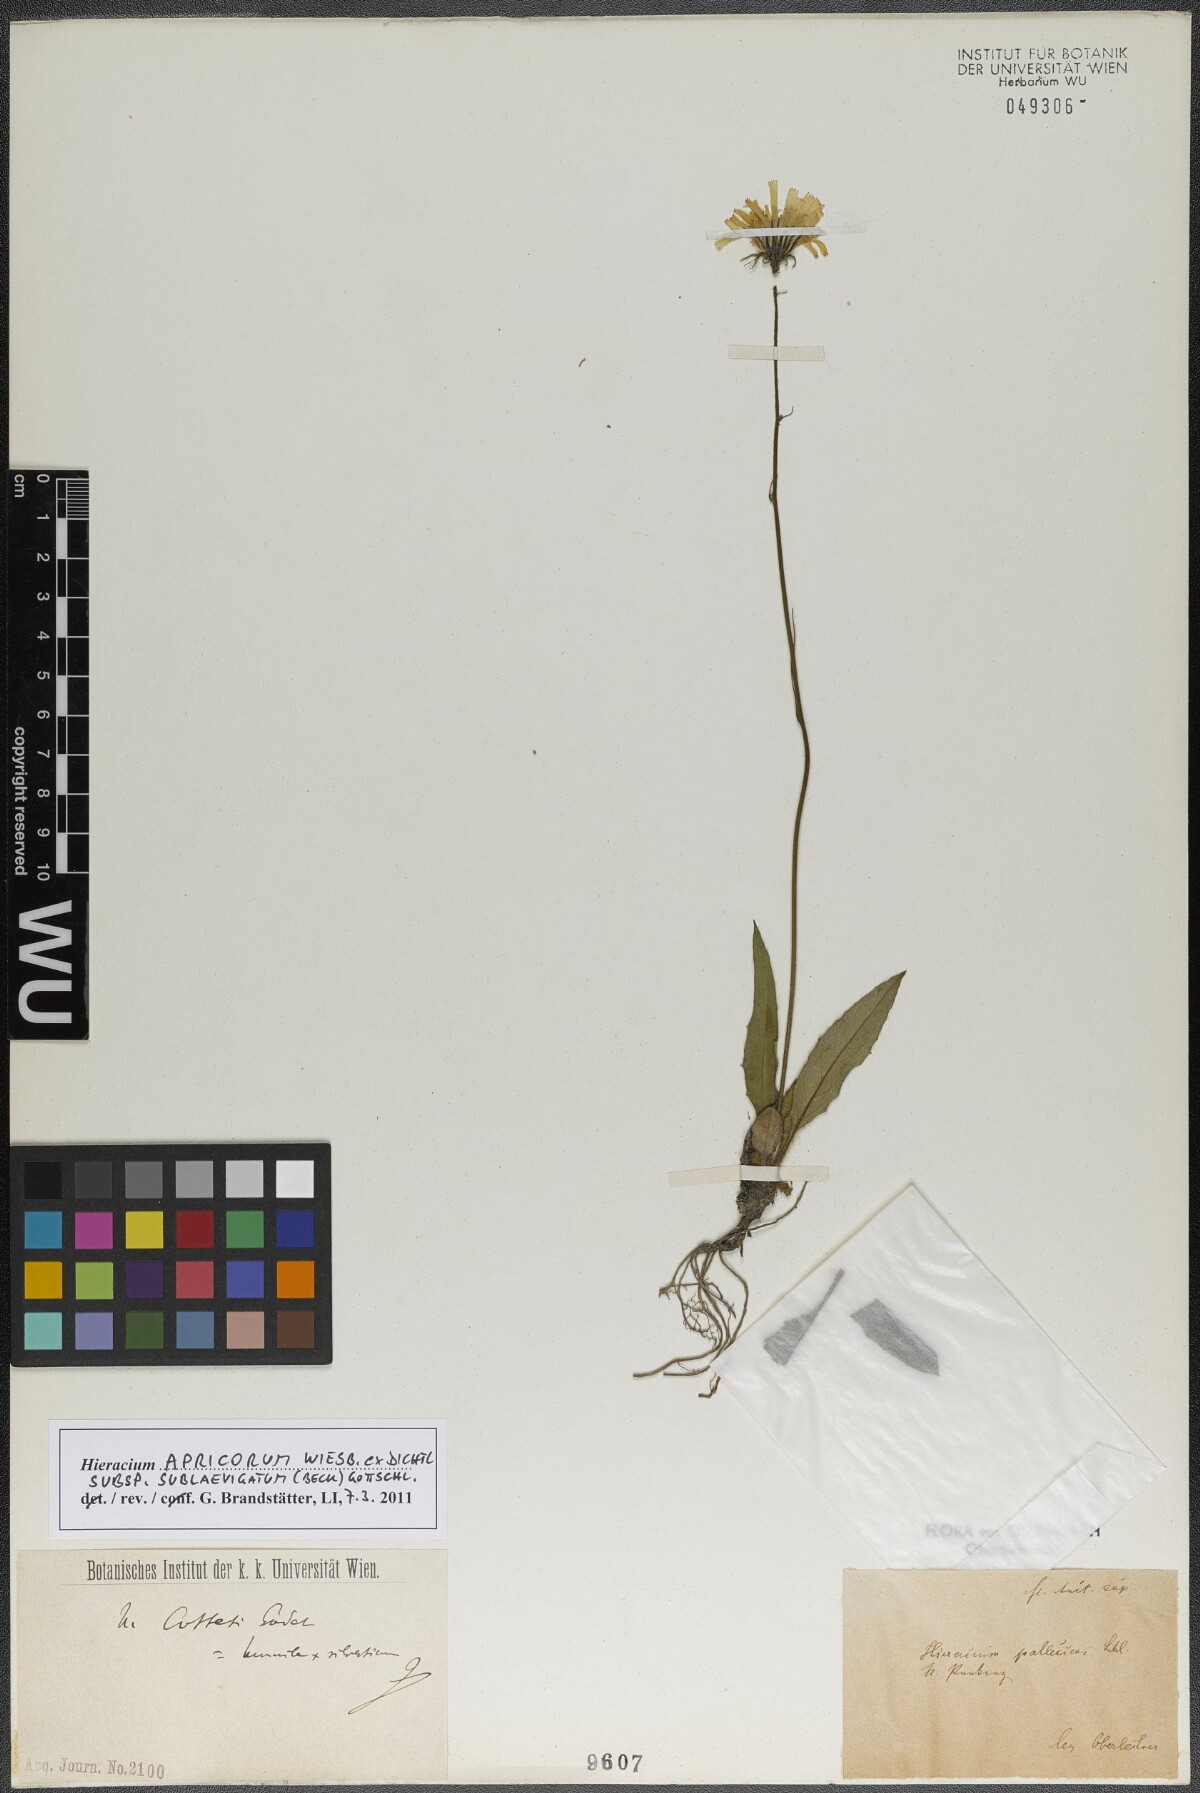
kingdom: Plantae
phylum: Tracheophyta
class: Magnoliopsida
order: Asterales
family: Asteraceae
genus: Hieracium
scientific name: Hieracium apricorum
